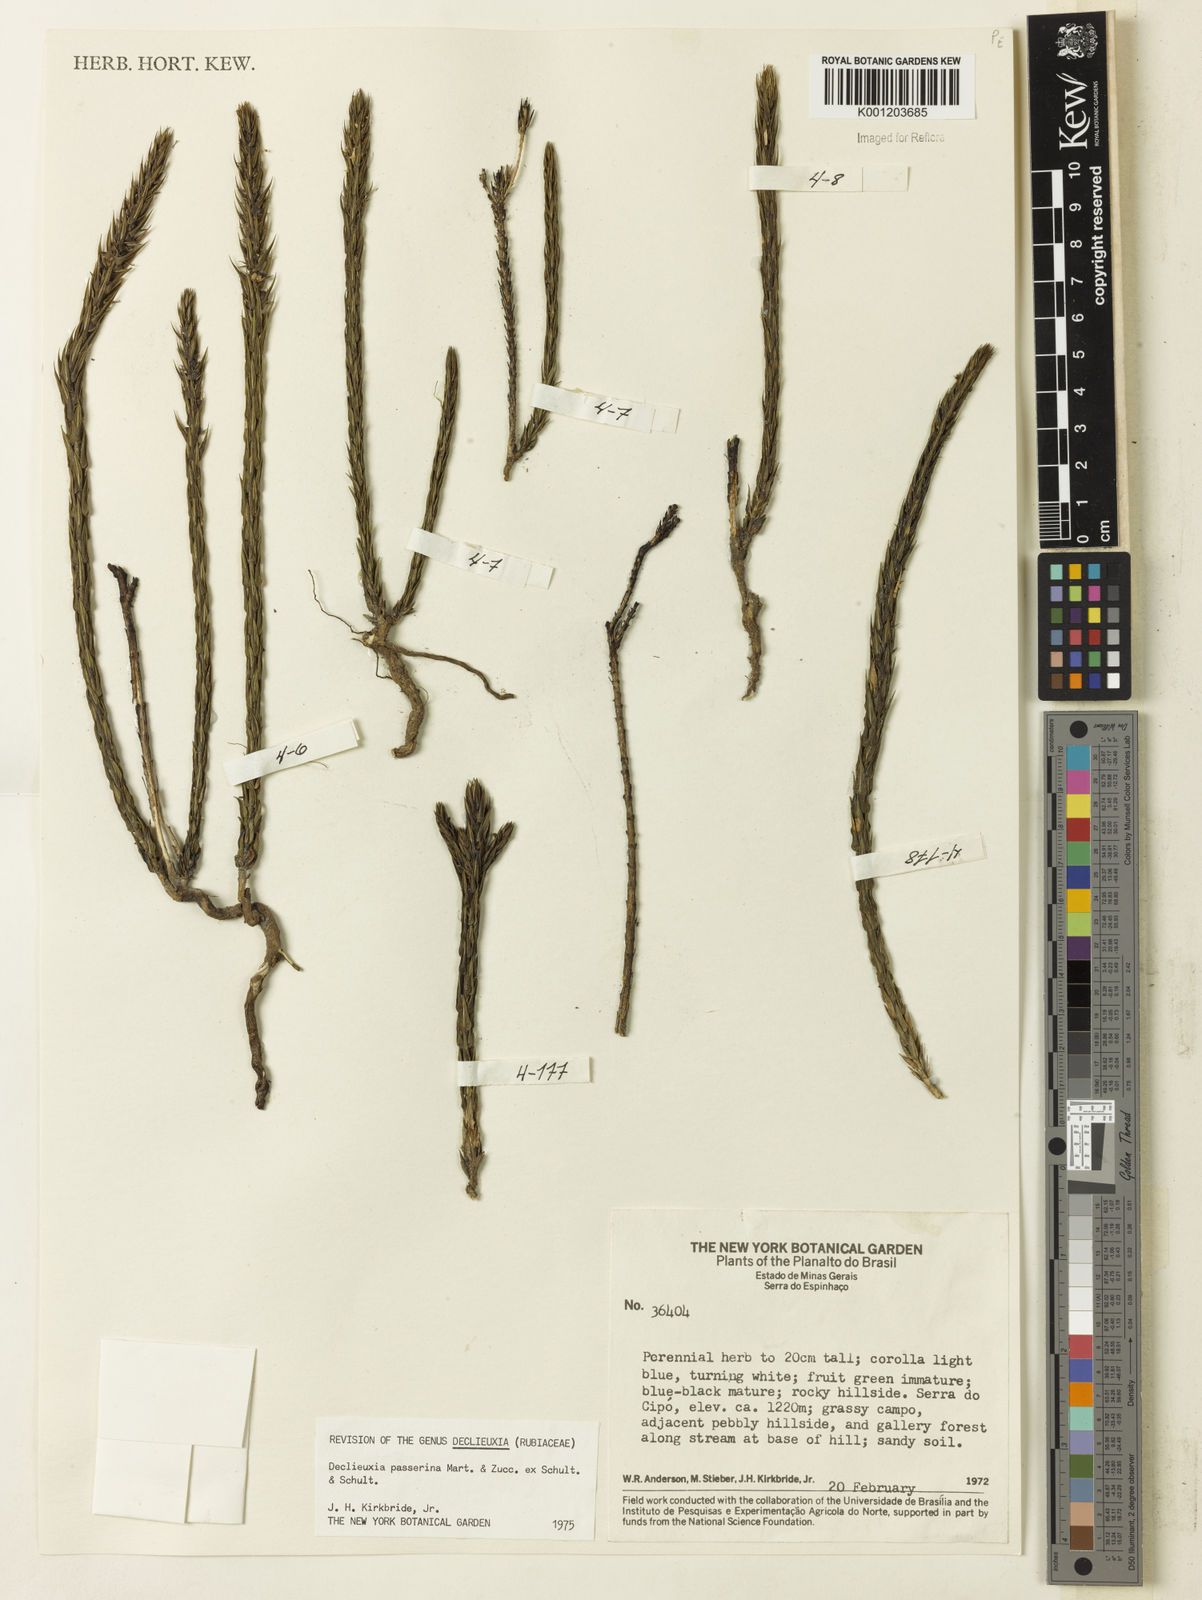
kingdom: Plantae
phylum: Tracheophyta
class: Magnoliopsida
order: Gentianales
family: Rubiaceae
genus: Declieuxia
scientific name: Declieuxia
